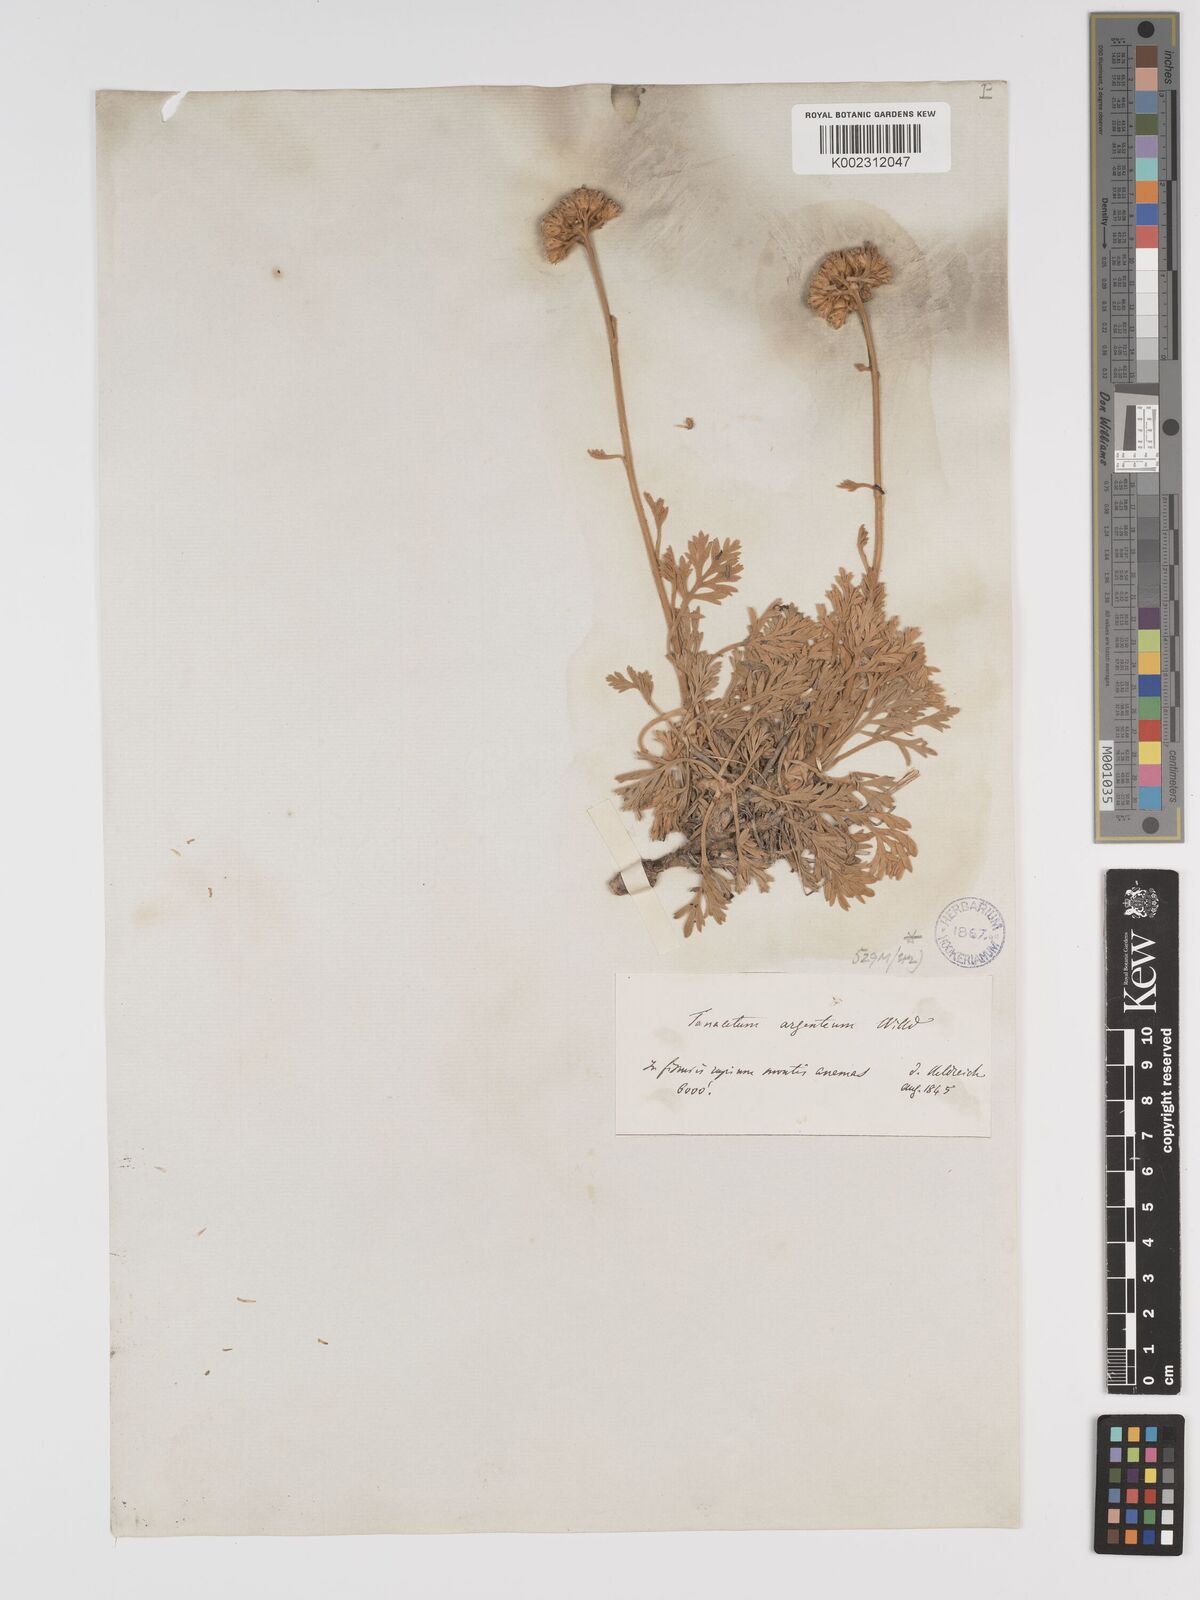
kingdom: Plantae
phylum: Tracheophyta
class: Magnoliopsida
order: Asterales
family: Asteraceae
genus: Tanacetum
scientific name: Tanacetum argenteum
